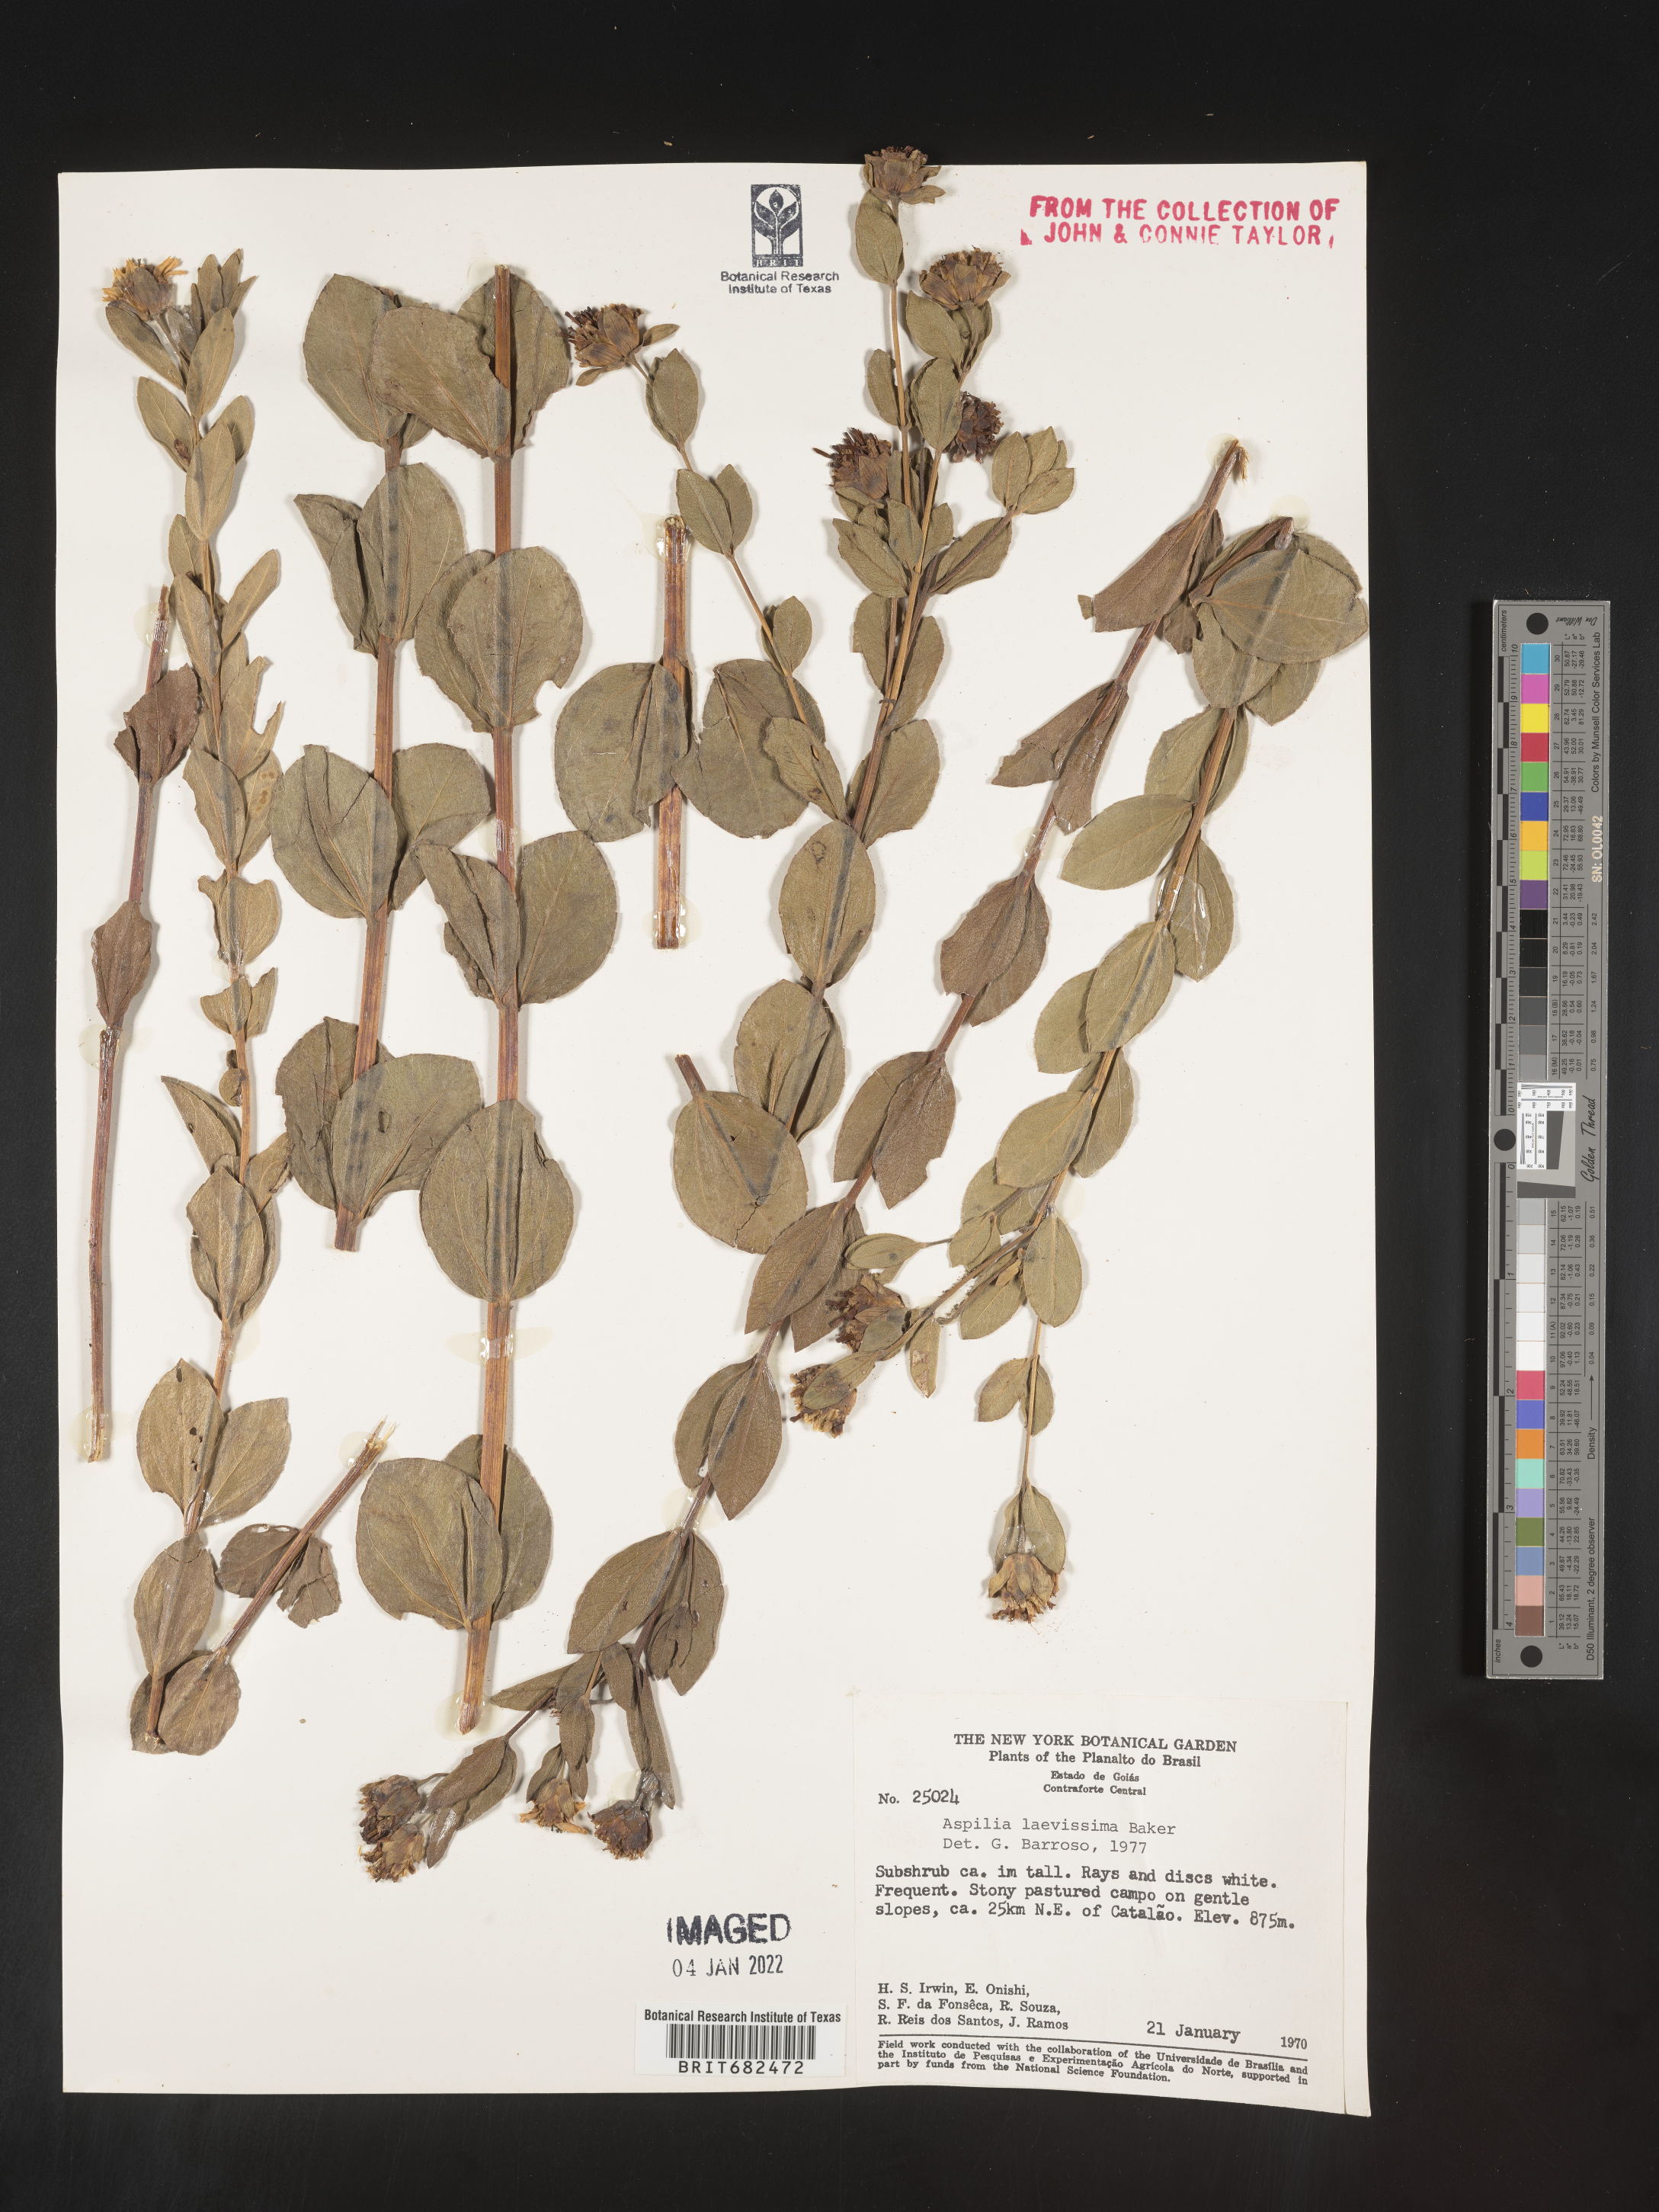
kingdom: Plantae
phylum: Tracheophyta
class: Magnoliopsida
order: Asterales
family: Asteraceae
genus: Aspilia
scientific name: Aspilia
